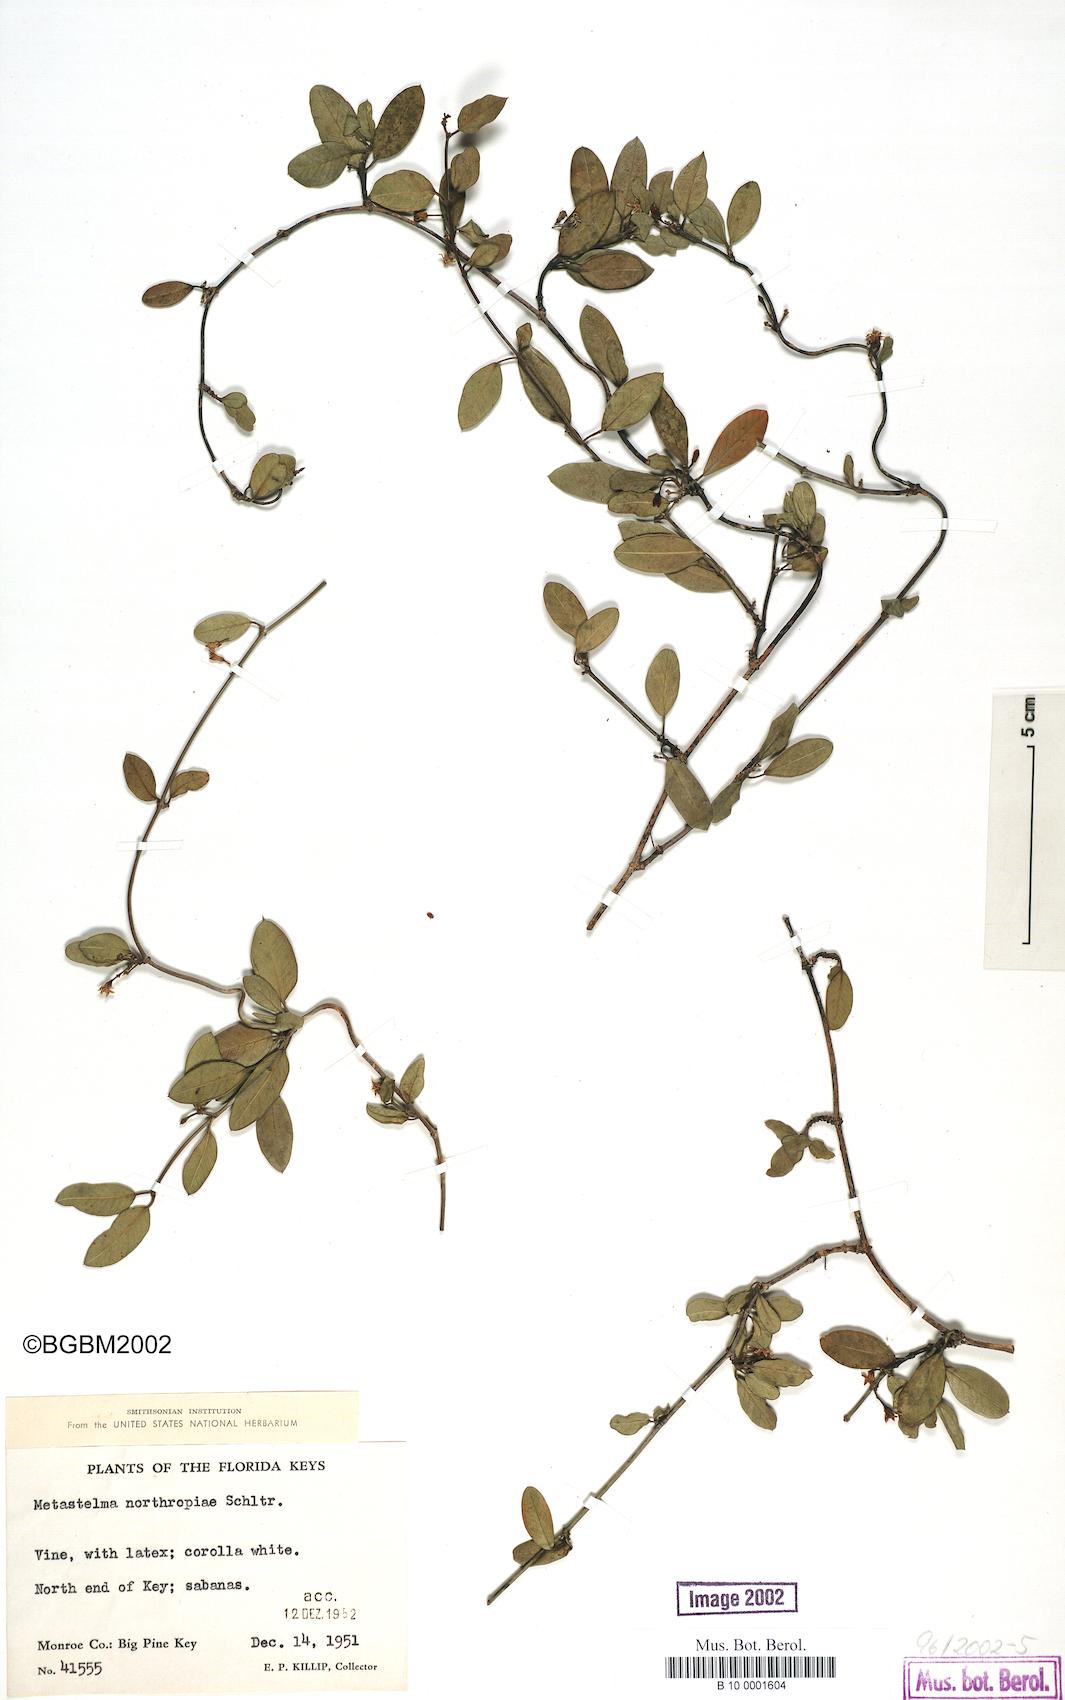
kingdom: Plantae
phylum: Tracheophyta
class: Magnoliopsida
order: Gentianales
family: Apocynaceae
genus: Metastelma
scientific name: Metastelma northropiae
